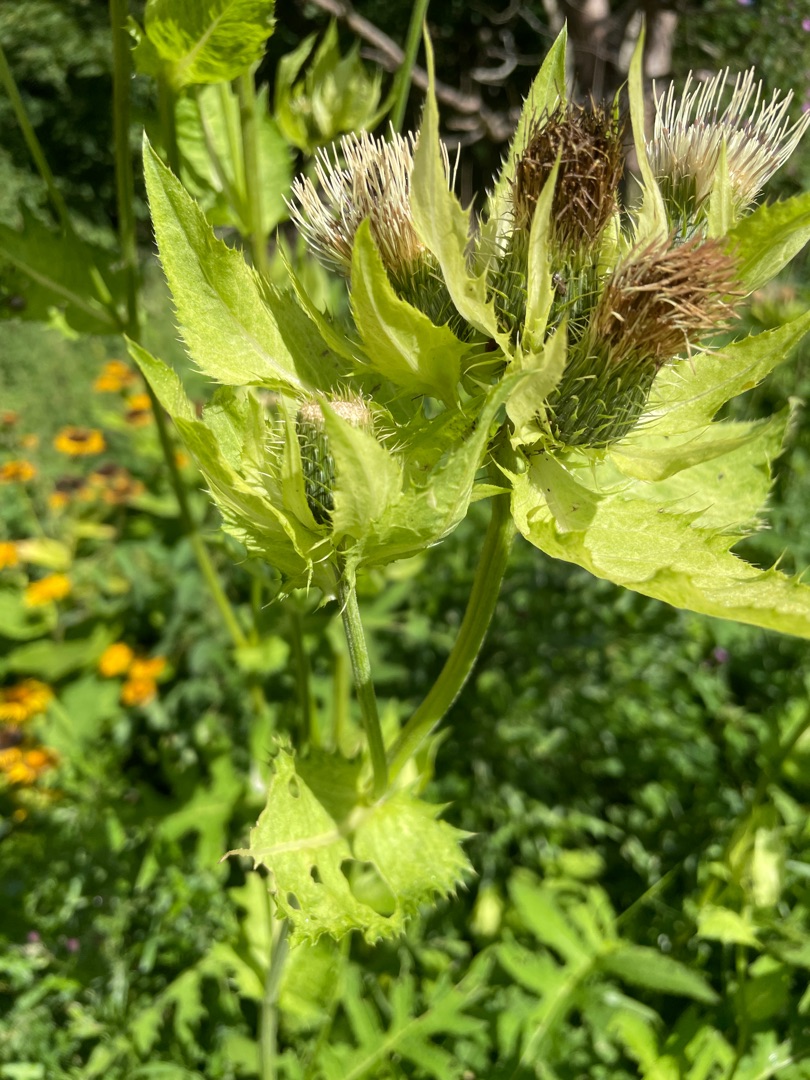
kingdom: Plantae
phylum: Tracheophyta
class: Magnoliopsida
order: Asterales
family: Asteraceae
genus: Cirsium
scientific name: Cirsium oleraceum
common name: Kål-tidsel
